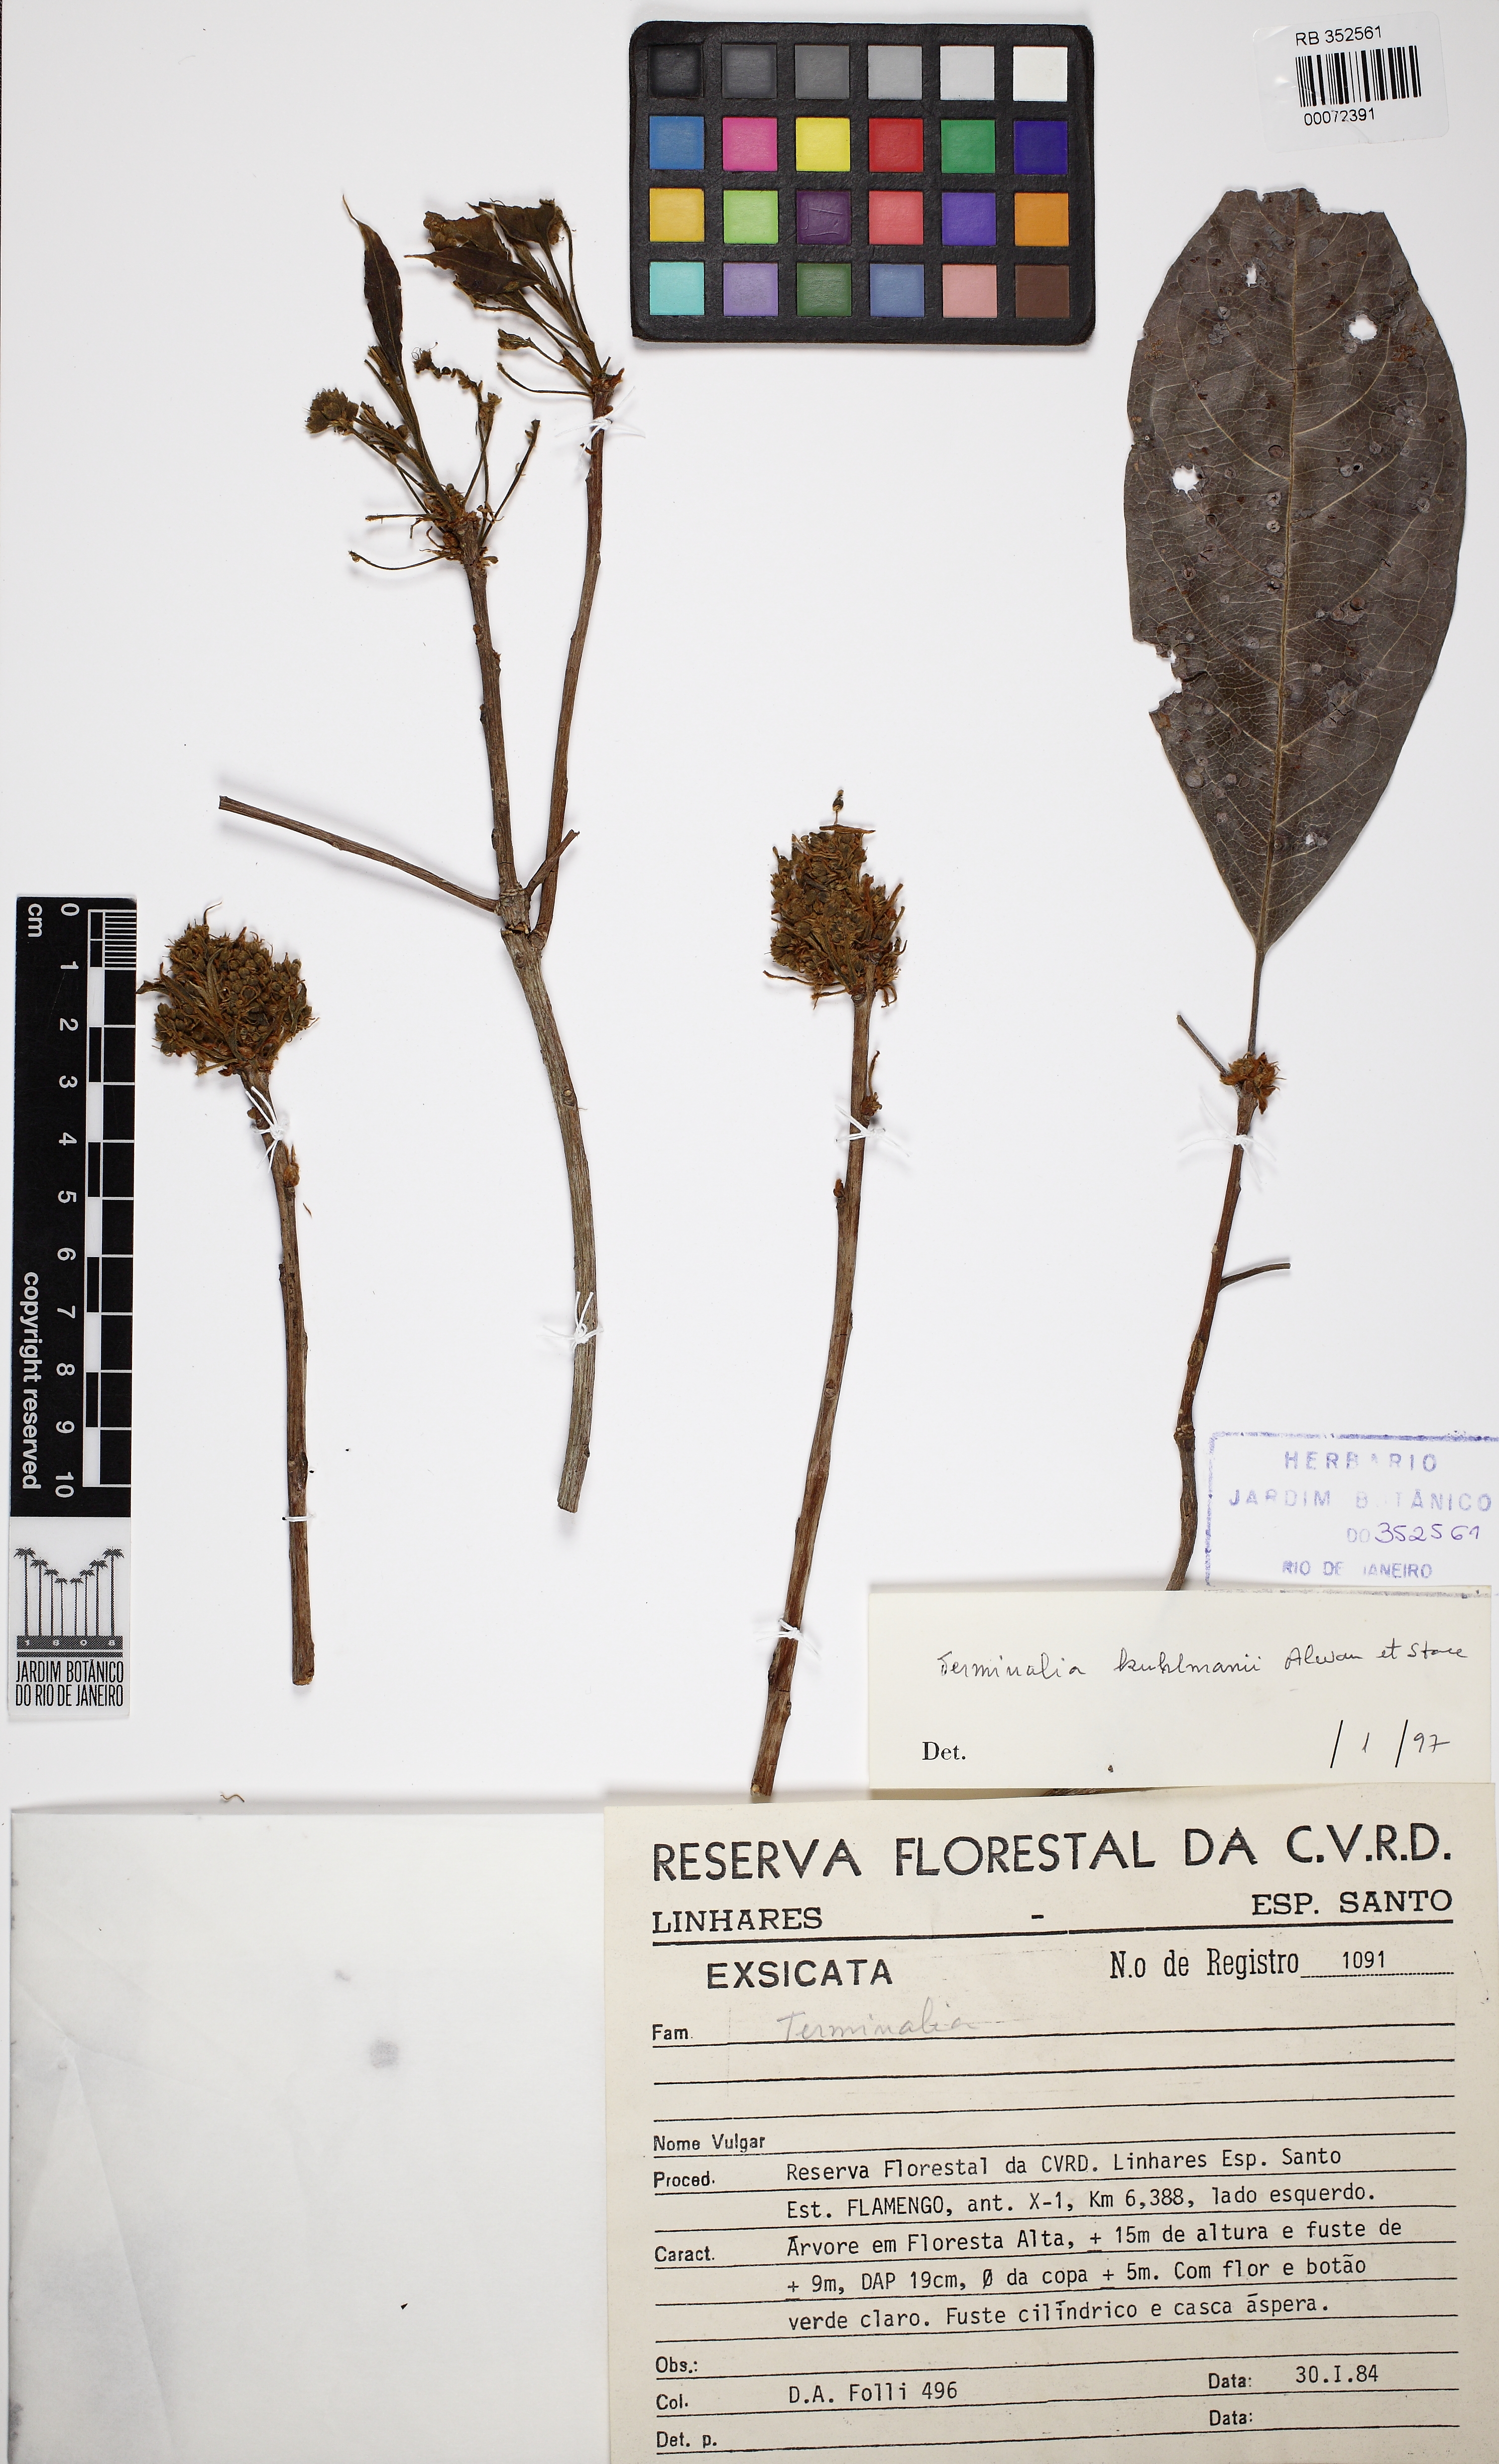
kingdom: Plantae
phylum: Tracheophyta
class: Magnoliopsida
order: Myrtales
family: Combretaceae
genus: Terminalia
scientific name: Terminalia mameluco
